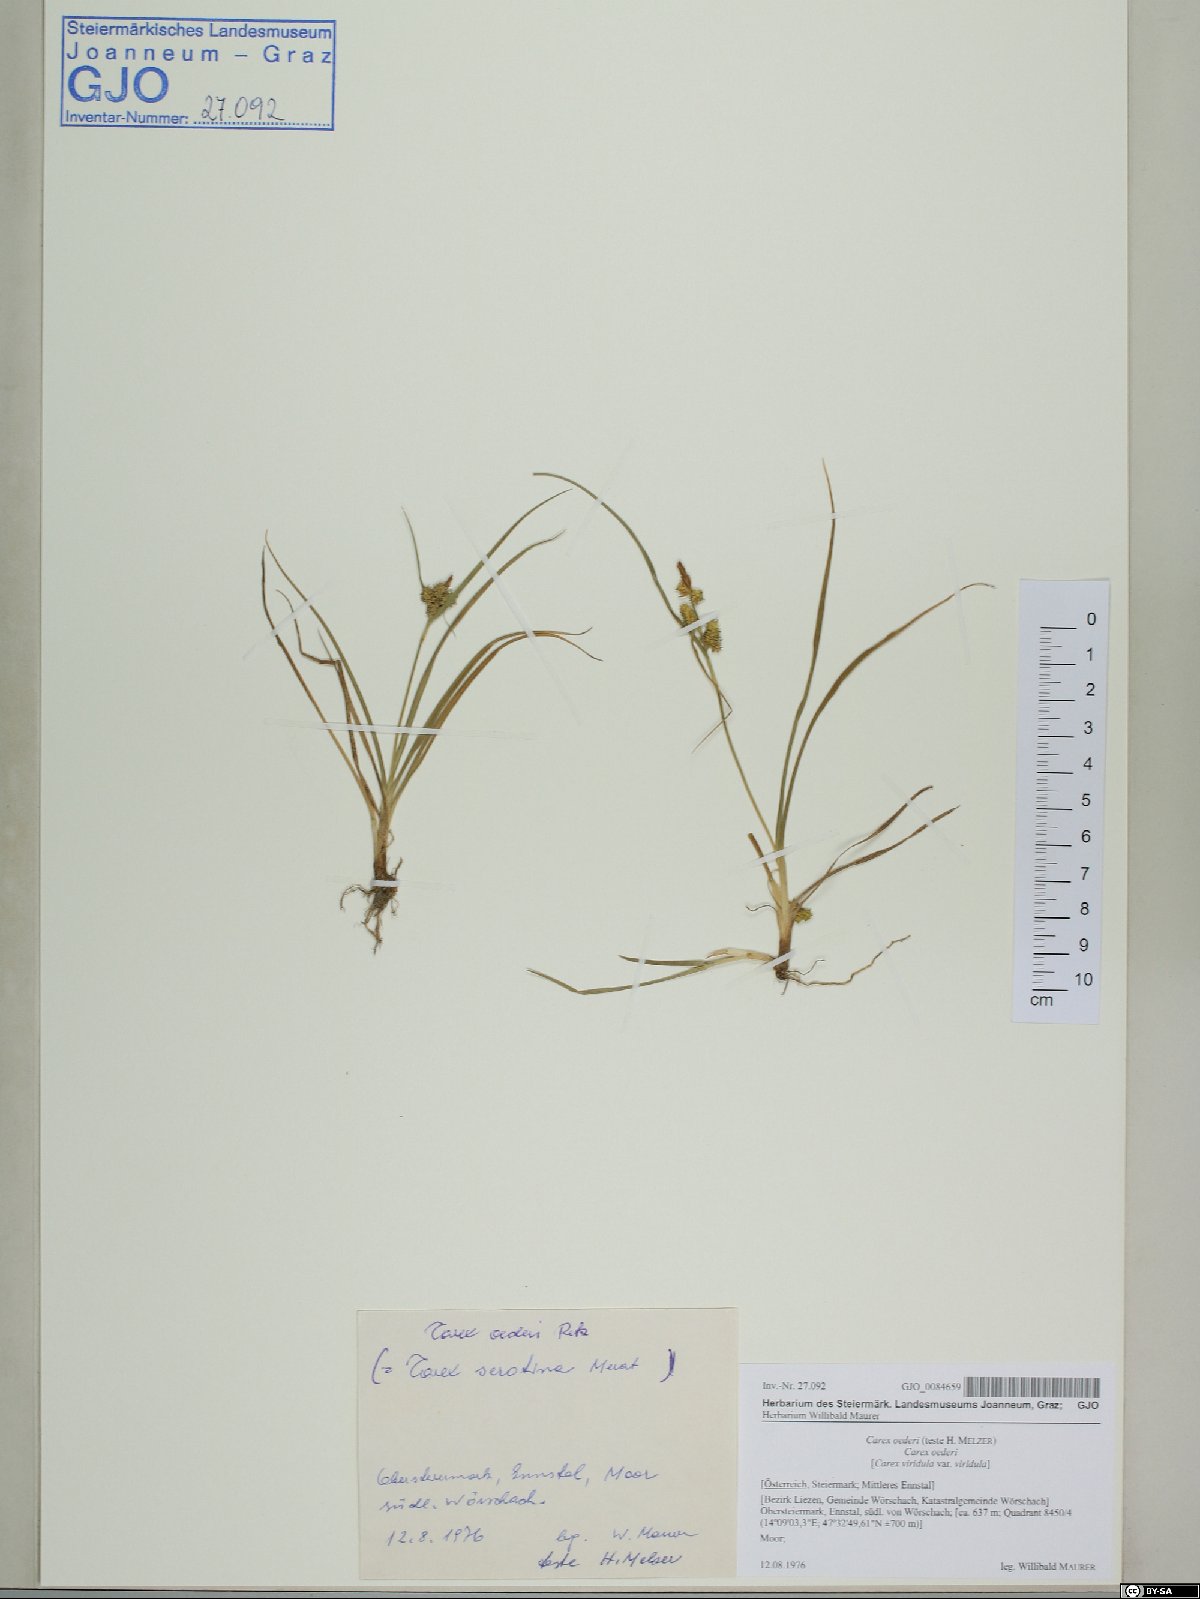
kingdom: Plantae
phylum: Tracheophyta
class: Liliopsida
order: Poales
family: Cyperaceae
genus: Carex
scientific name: Carex oederi
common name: Common & small-fruited yellow-sedge
